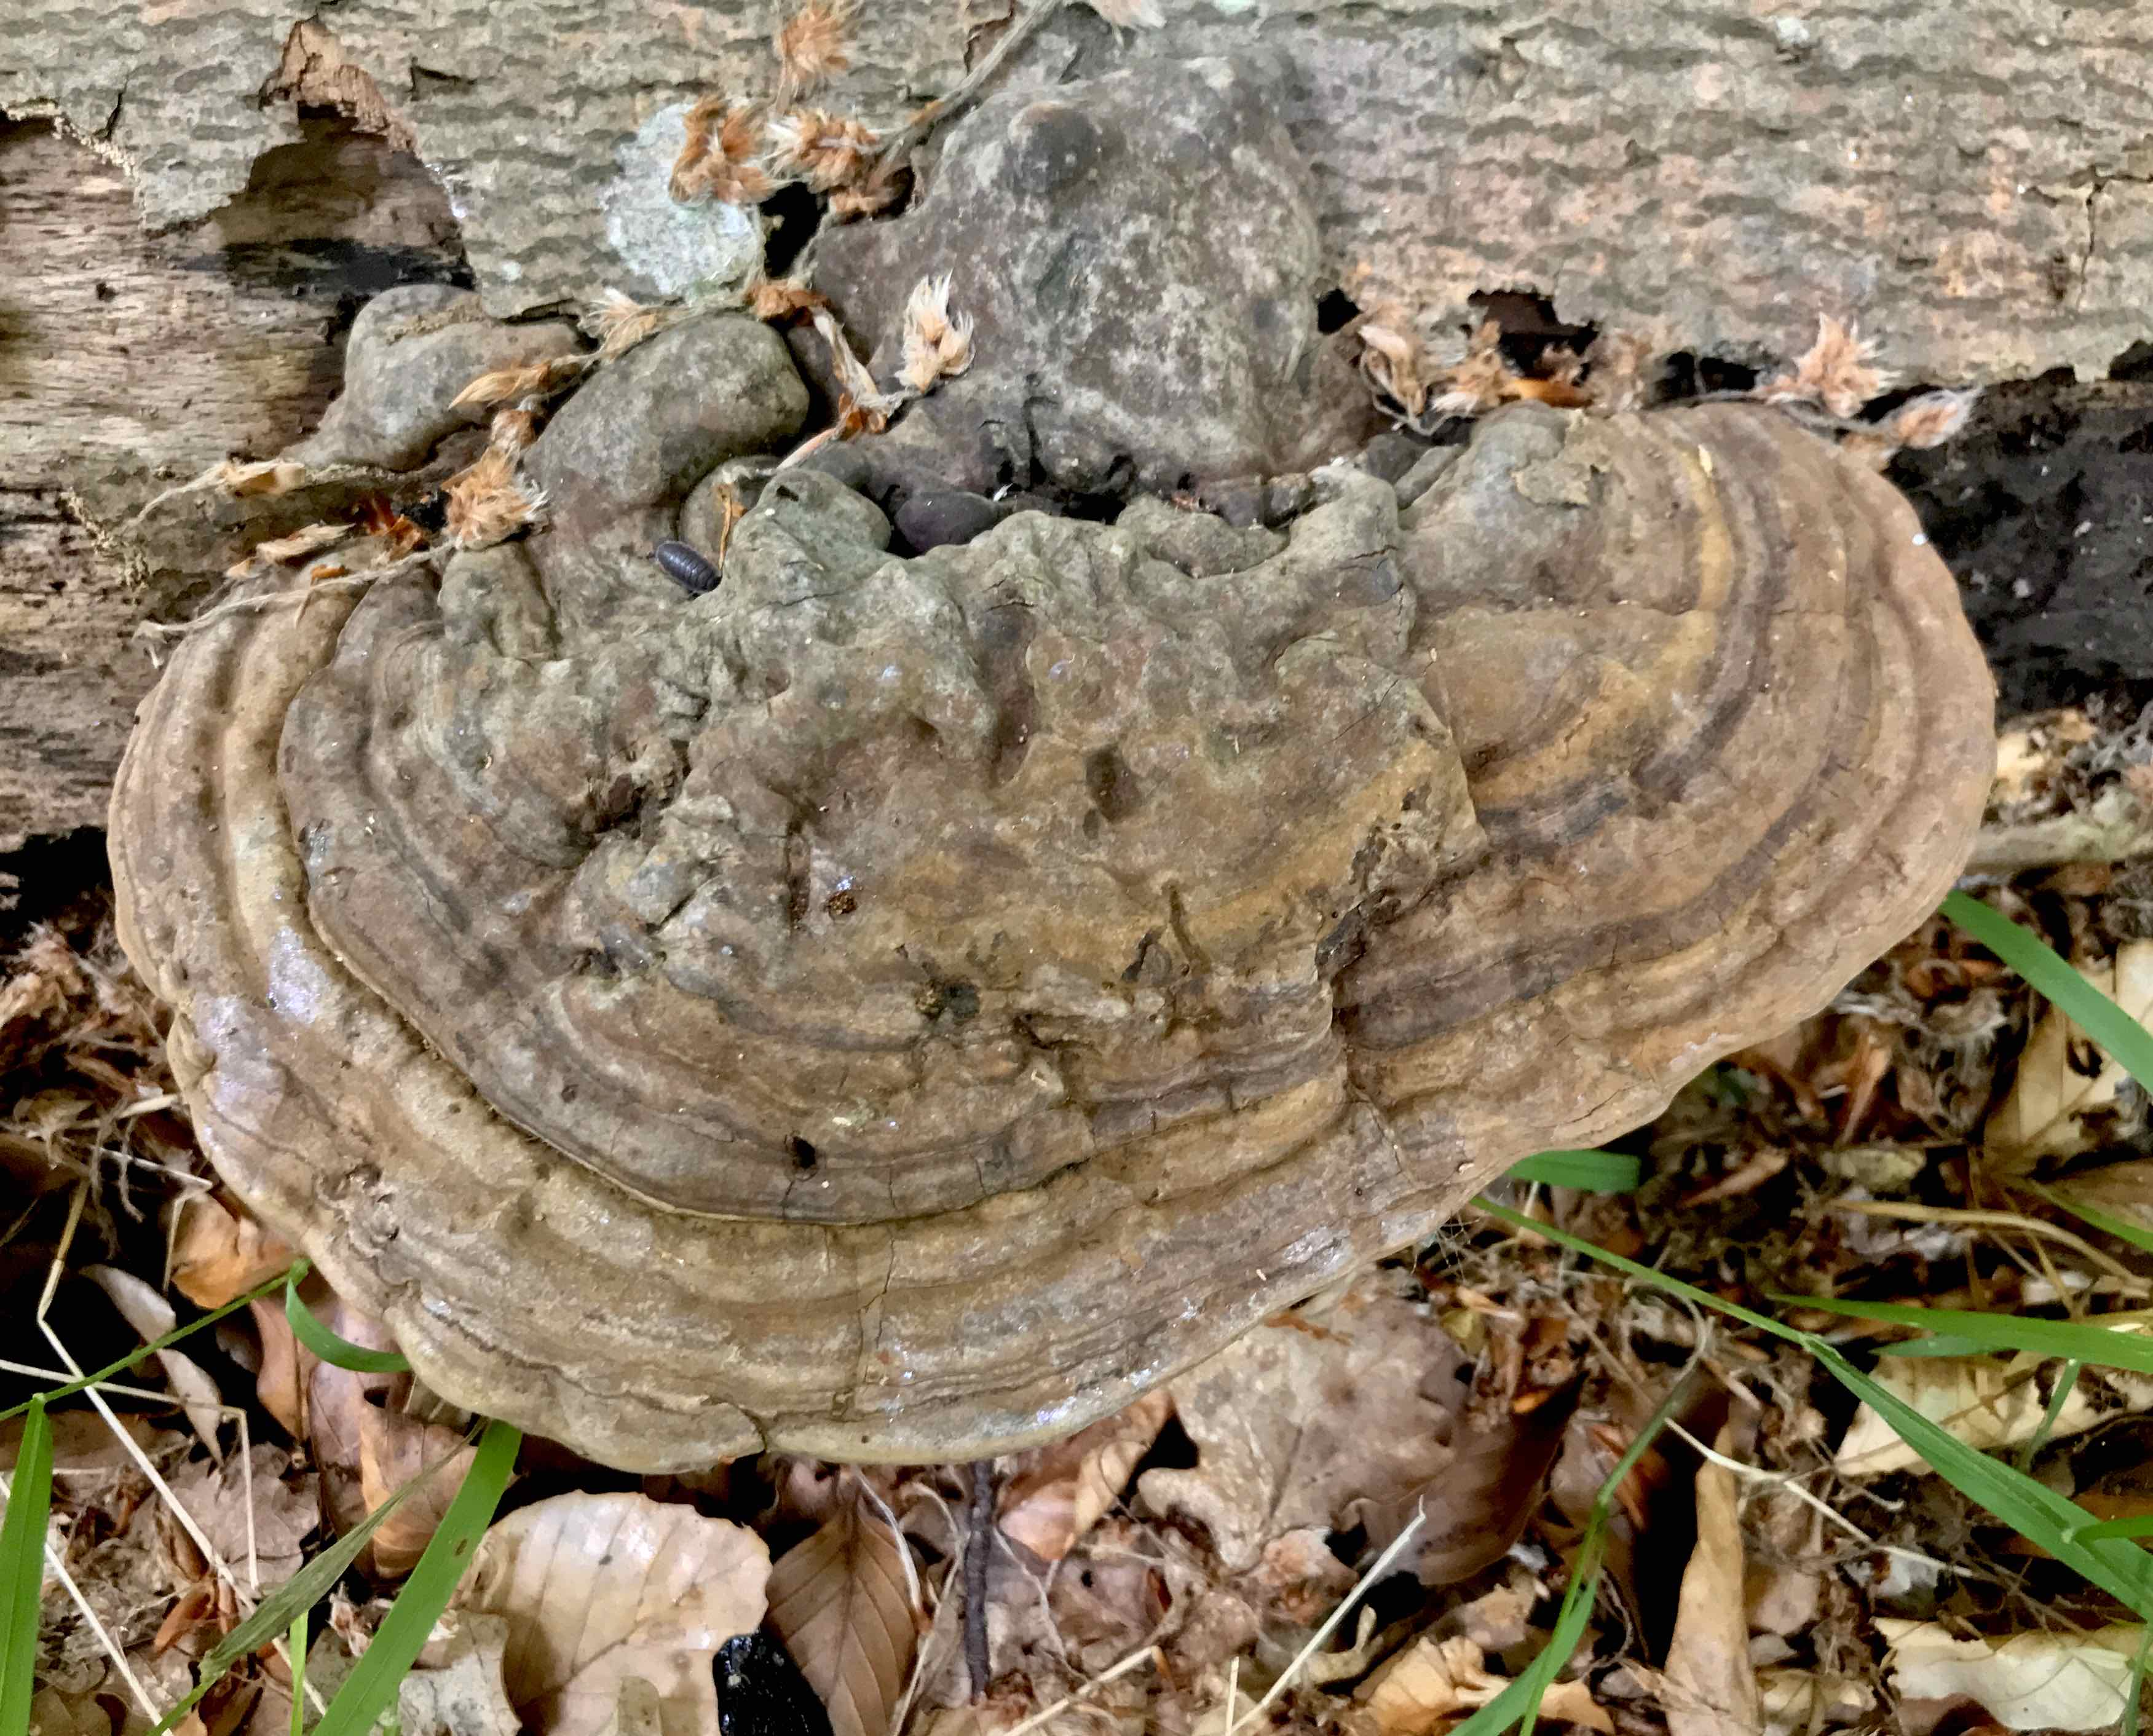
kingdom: Fungi
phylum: Basidiomycota
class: Agaricomycetes
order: Polyporales
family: Polyporaceae
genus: Ganoderma
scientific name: Ganoderma applanatum
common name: flad lakporesvamp
